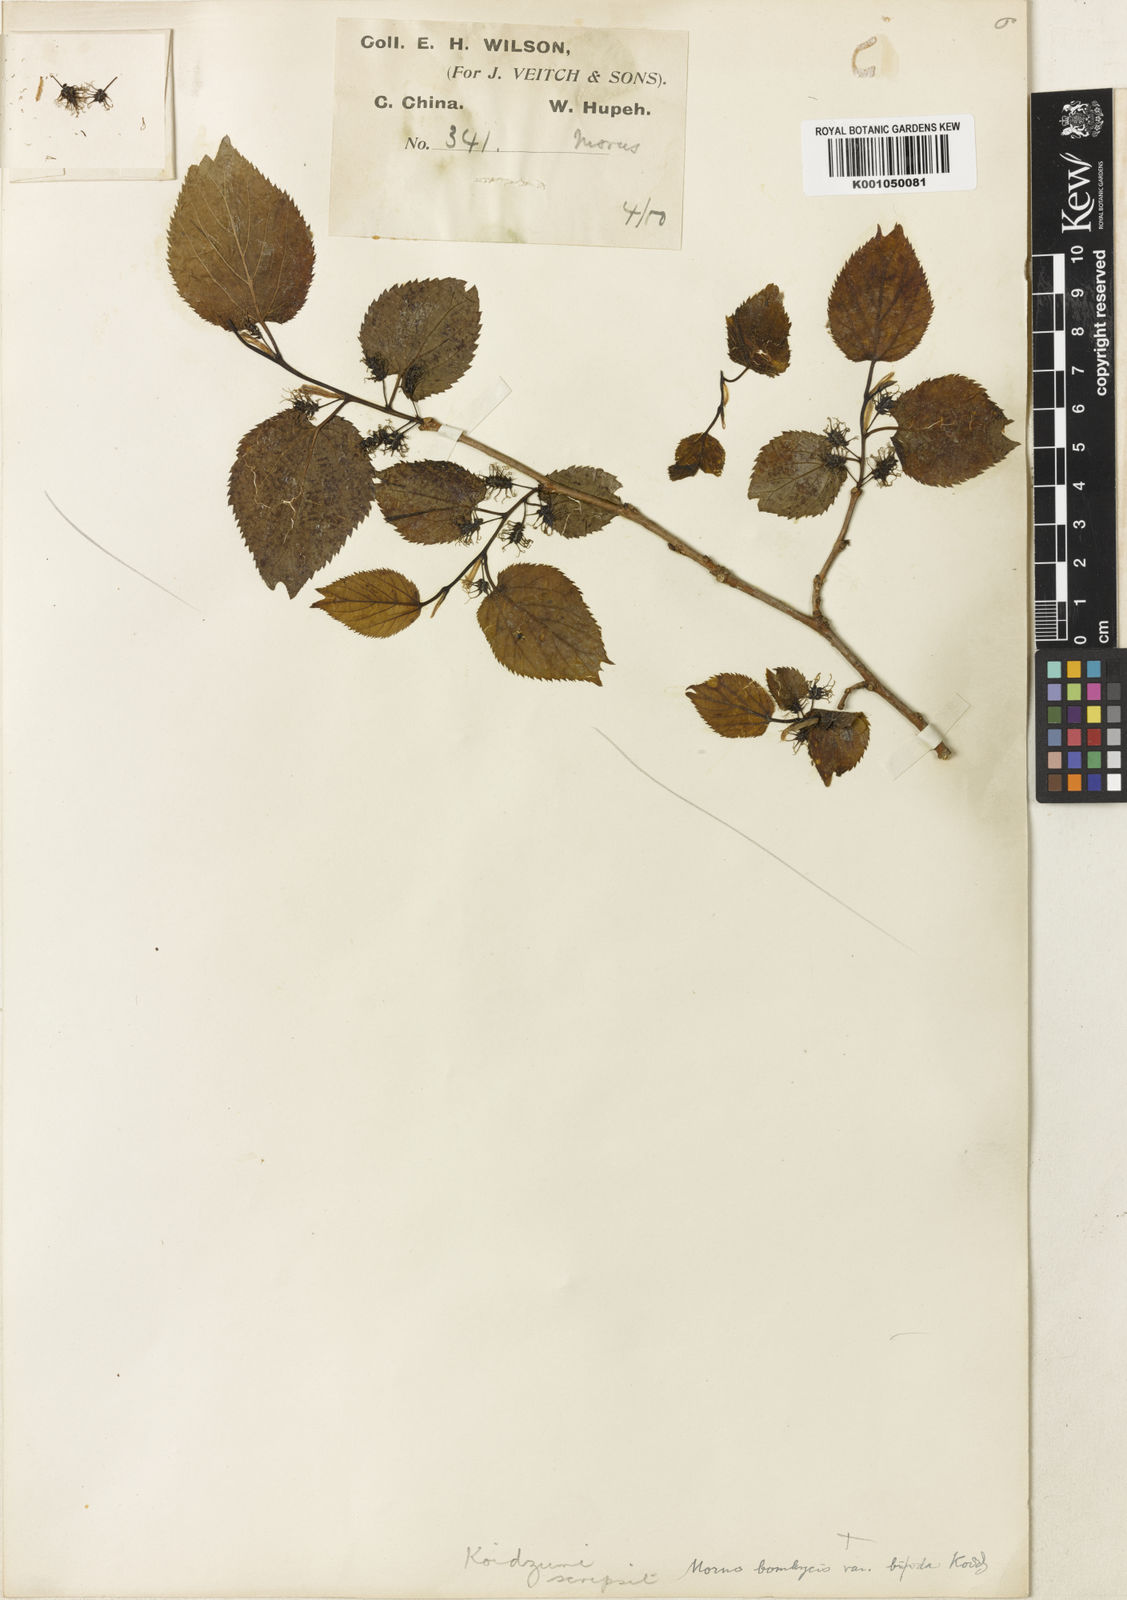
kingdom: Plantae
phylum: Tracheophyta
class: Magnoliopsida
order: Rosales
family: Moraceae
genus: Morus
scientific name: Morus indica
